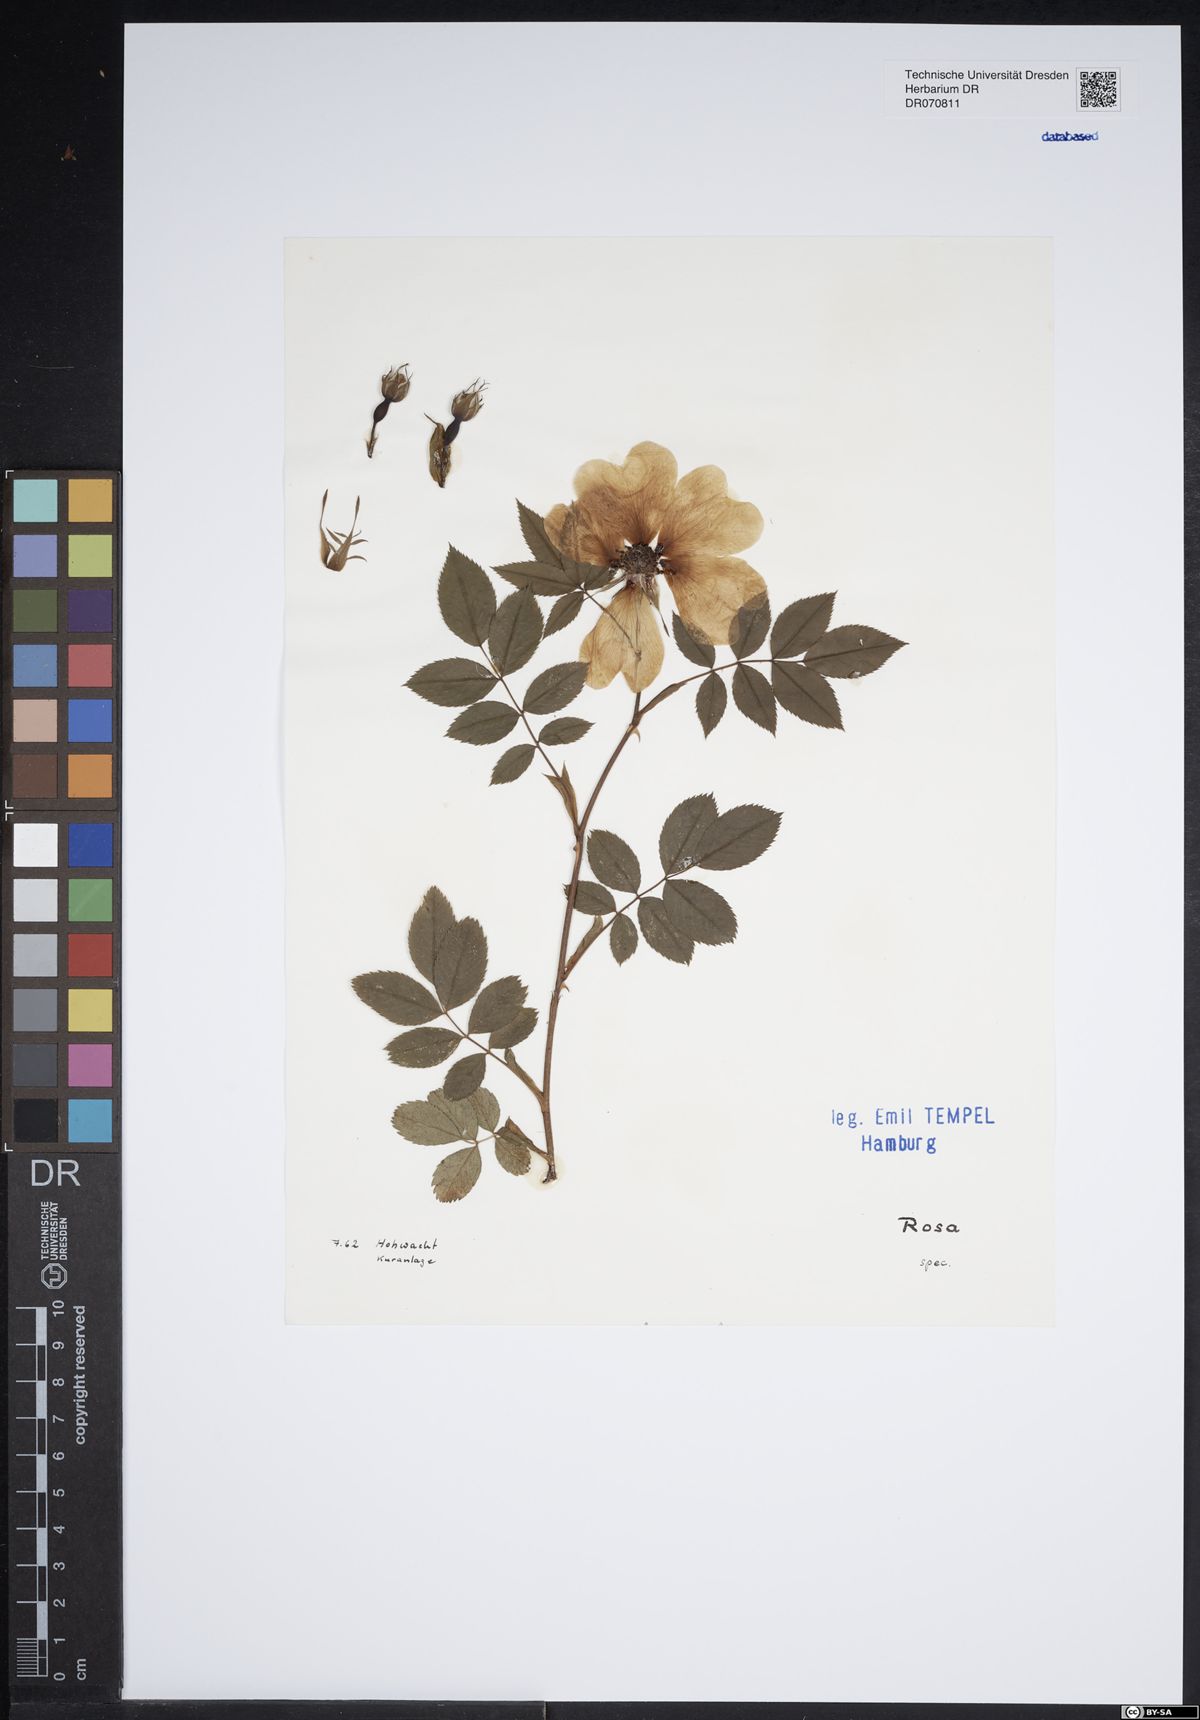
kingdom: Plantae
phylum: Tracheophyta
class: Magnoliopsida
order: Rosales
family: Rosaceae
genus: Rosa
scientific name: Rosa
